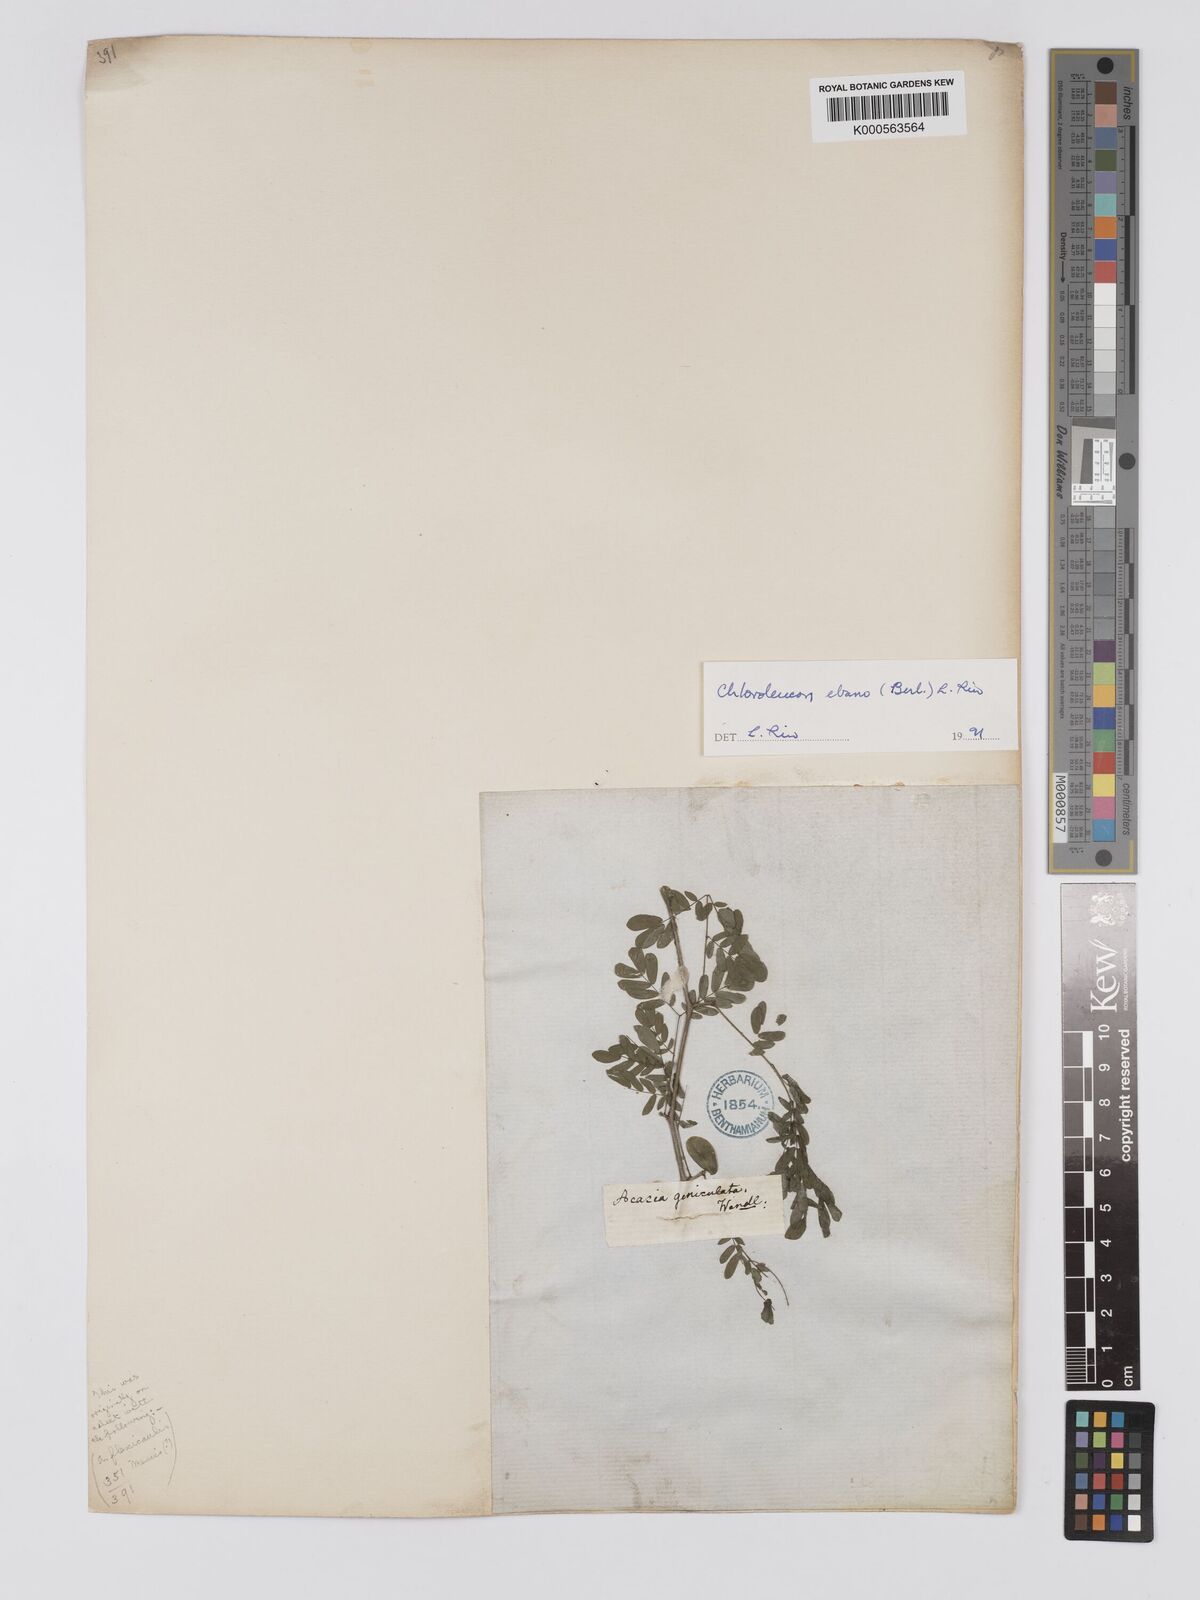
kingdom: Plantae
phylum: Tracheophyta
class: Magnoliopsida
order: Fabales
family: Fabaceae
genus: Ebenopsis
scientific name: Ebenopsis ebano
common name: Ebony blackbead
